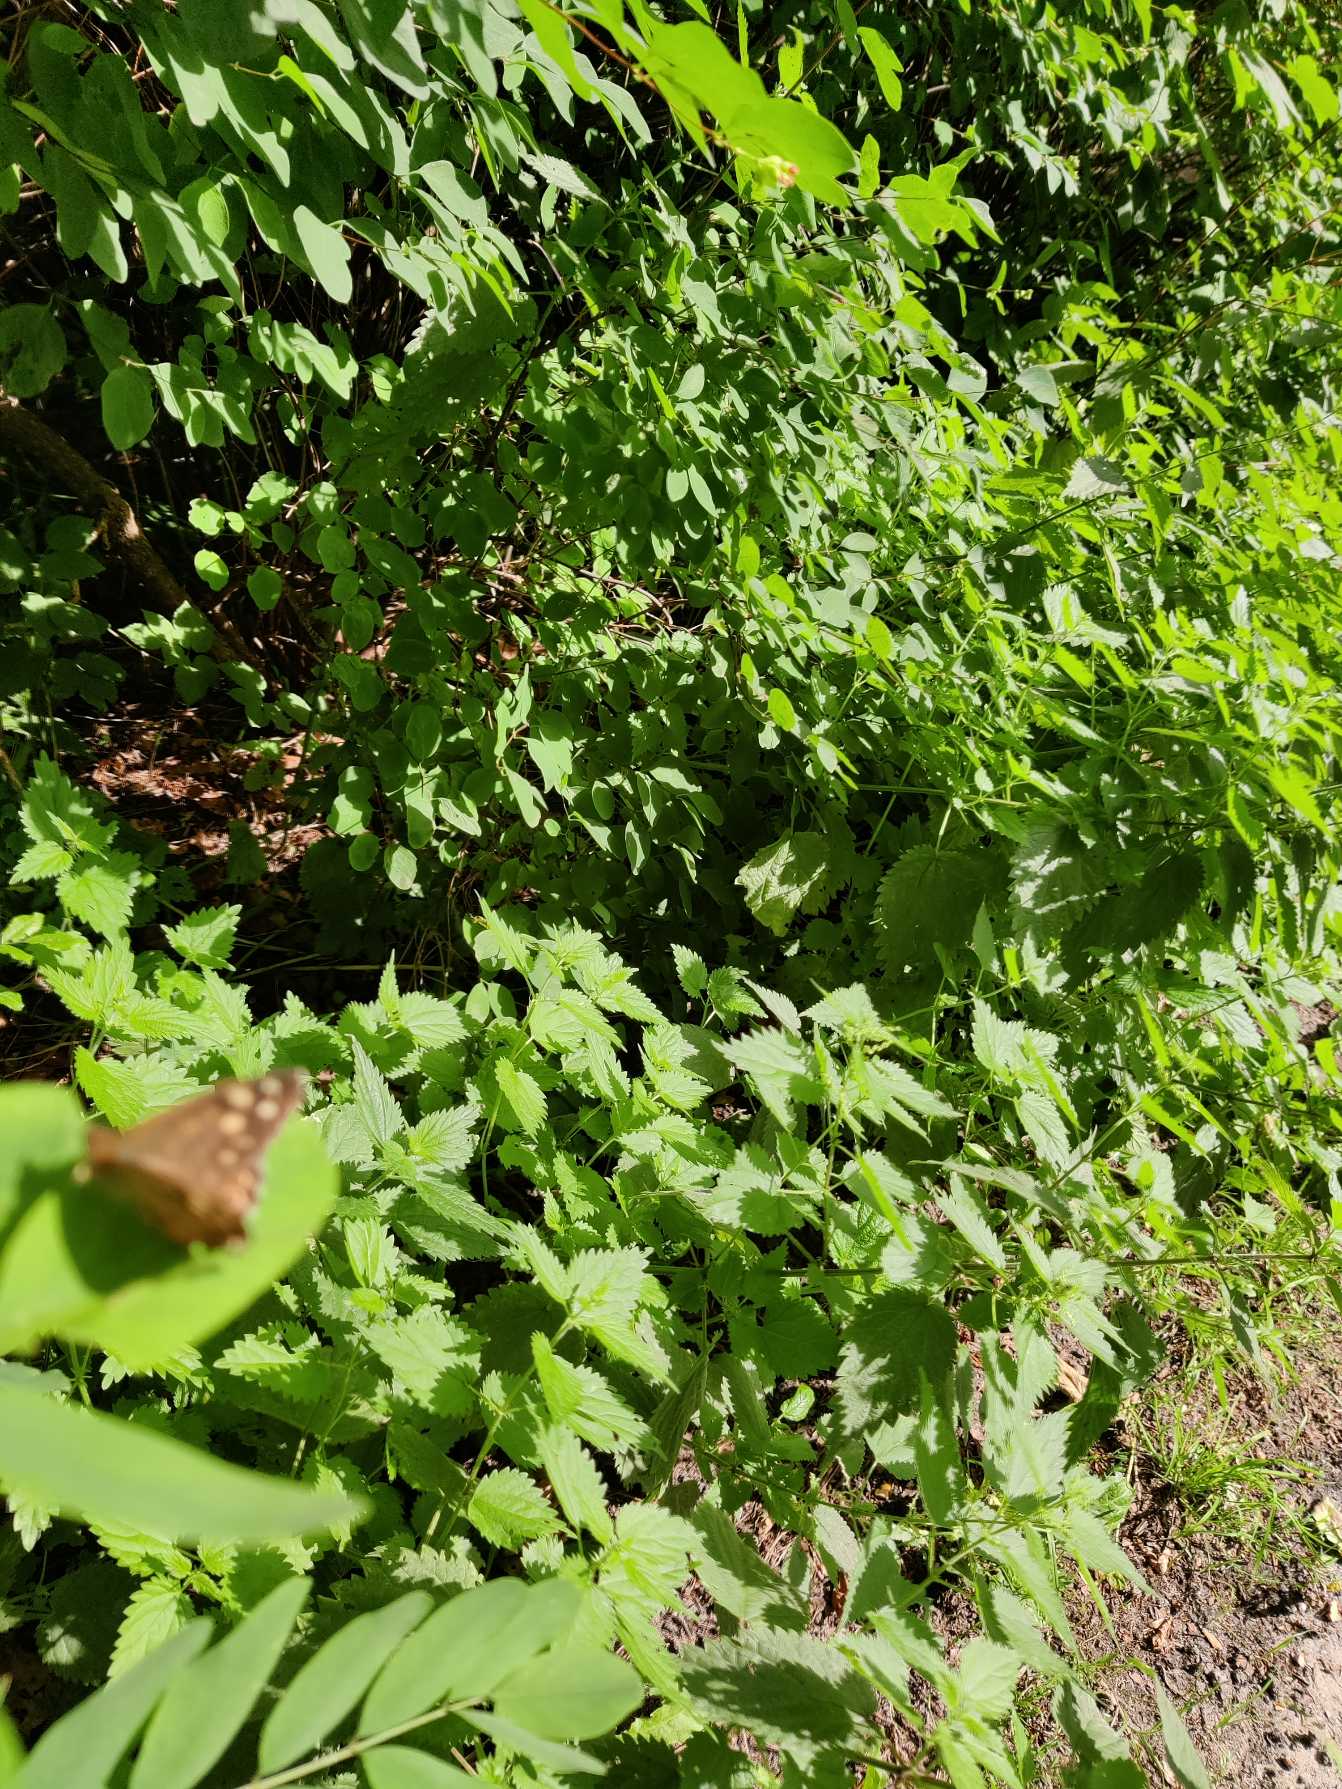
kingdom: Animalia
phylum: Arthropoda
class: Insecta
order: Lepidoptera
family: Nymphalidae
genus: Pararge
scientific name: Pararge aegeria
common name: Skovrandøje
